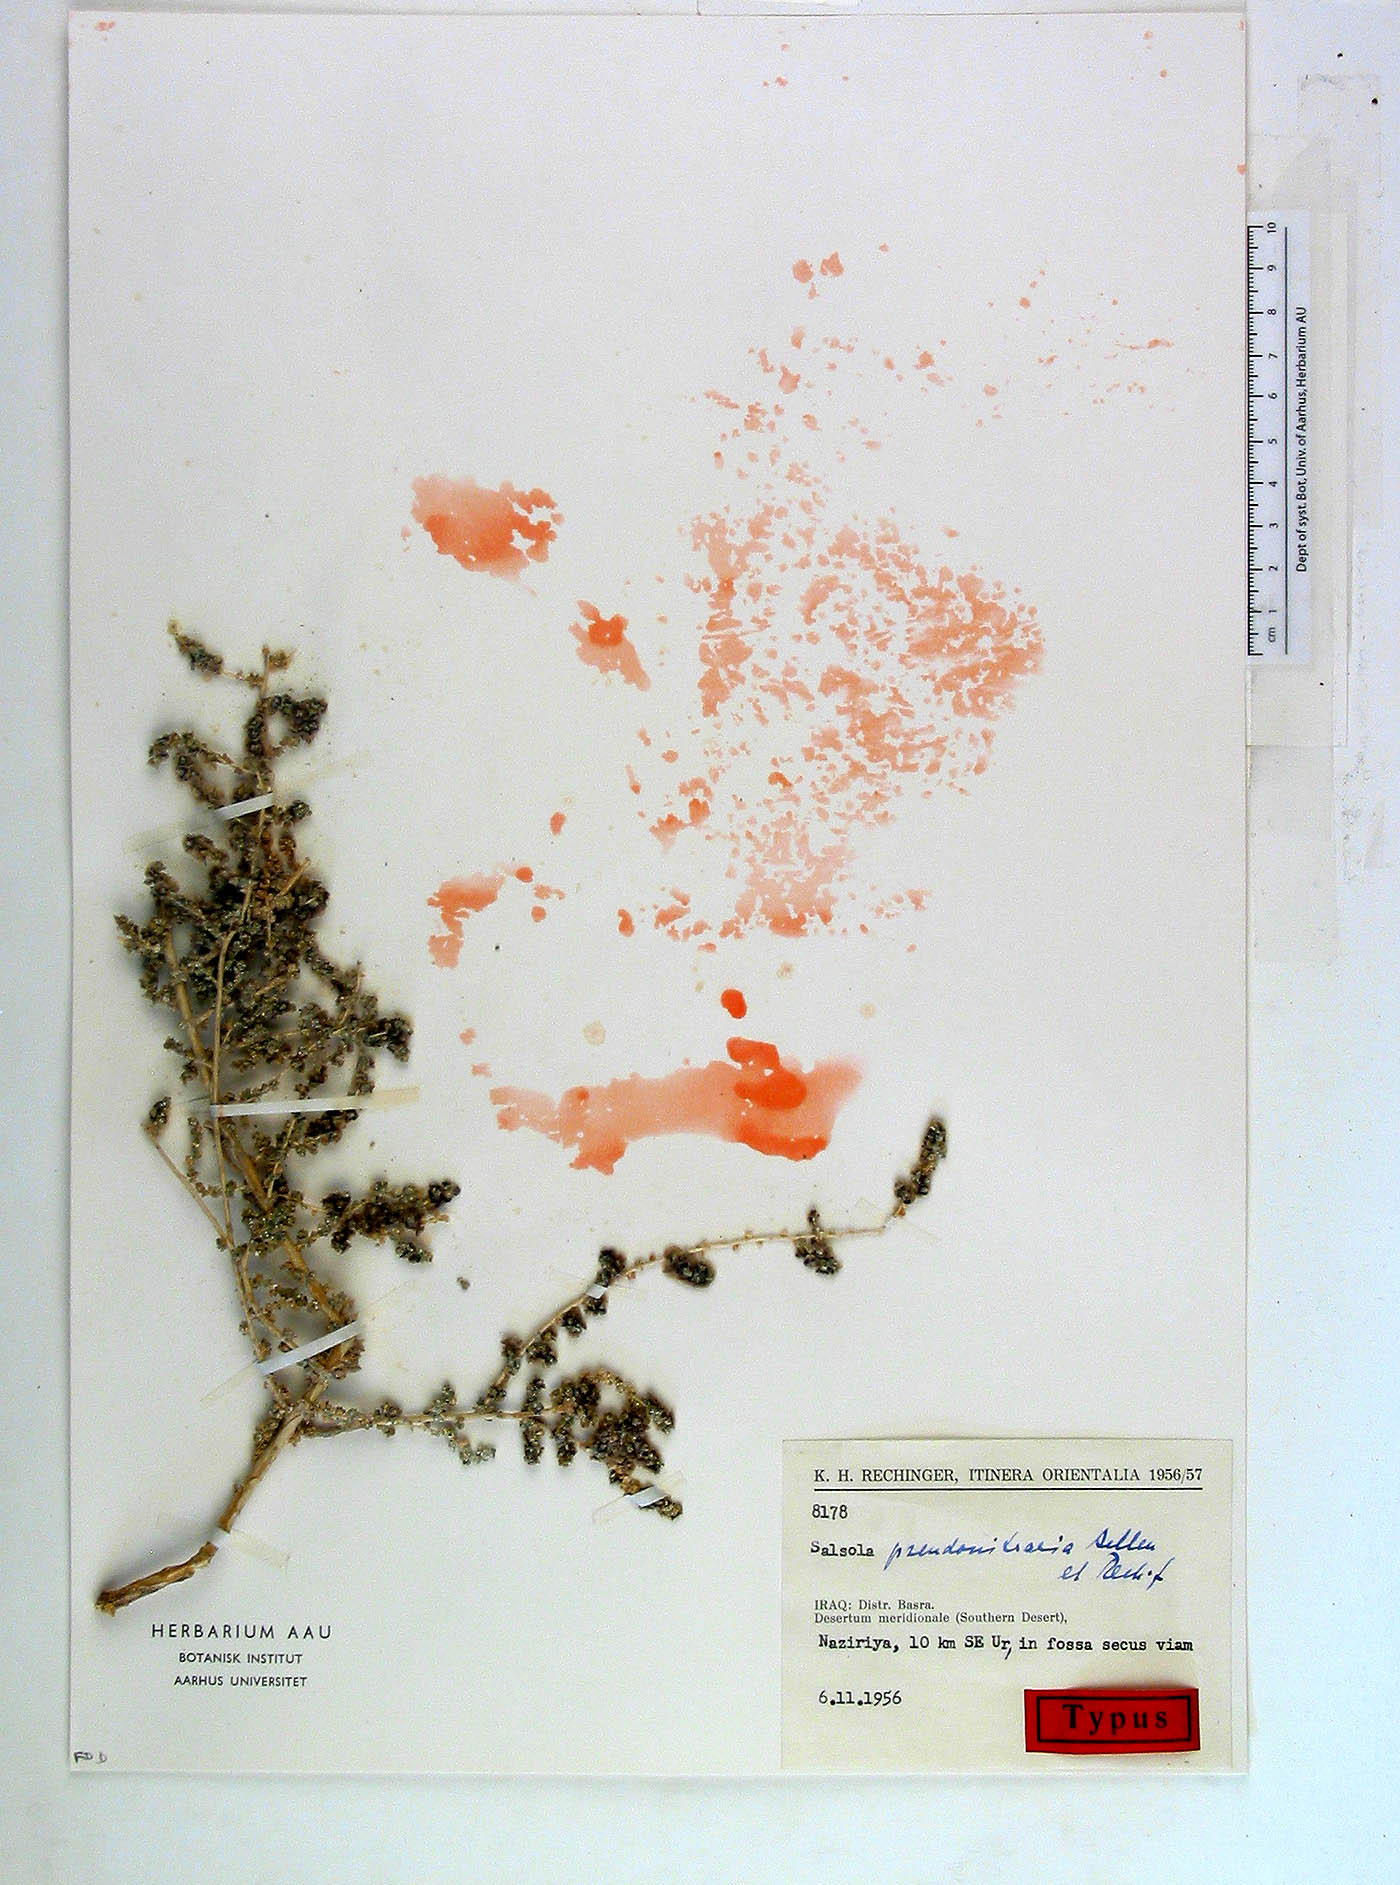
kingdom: Plantae
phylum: Tracheophyta
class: Magnoliopsida
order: Caryophyllales
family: Amaranthaceae
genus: Nitrosalsola
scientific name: Nitrosalsola nitraria
